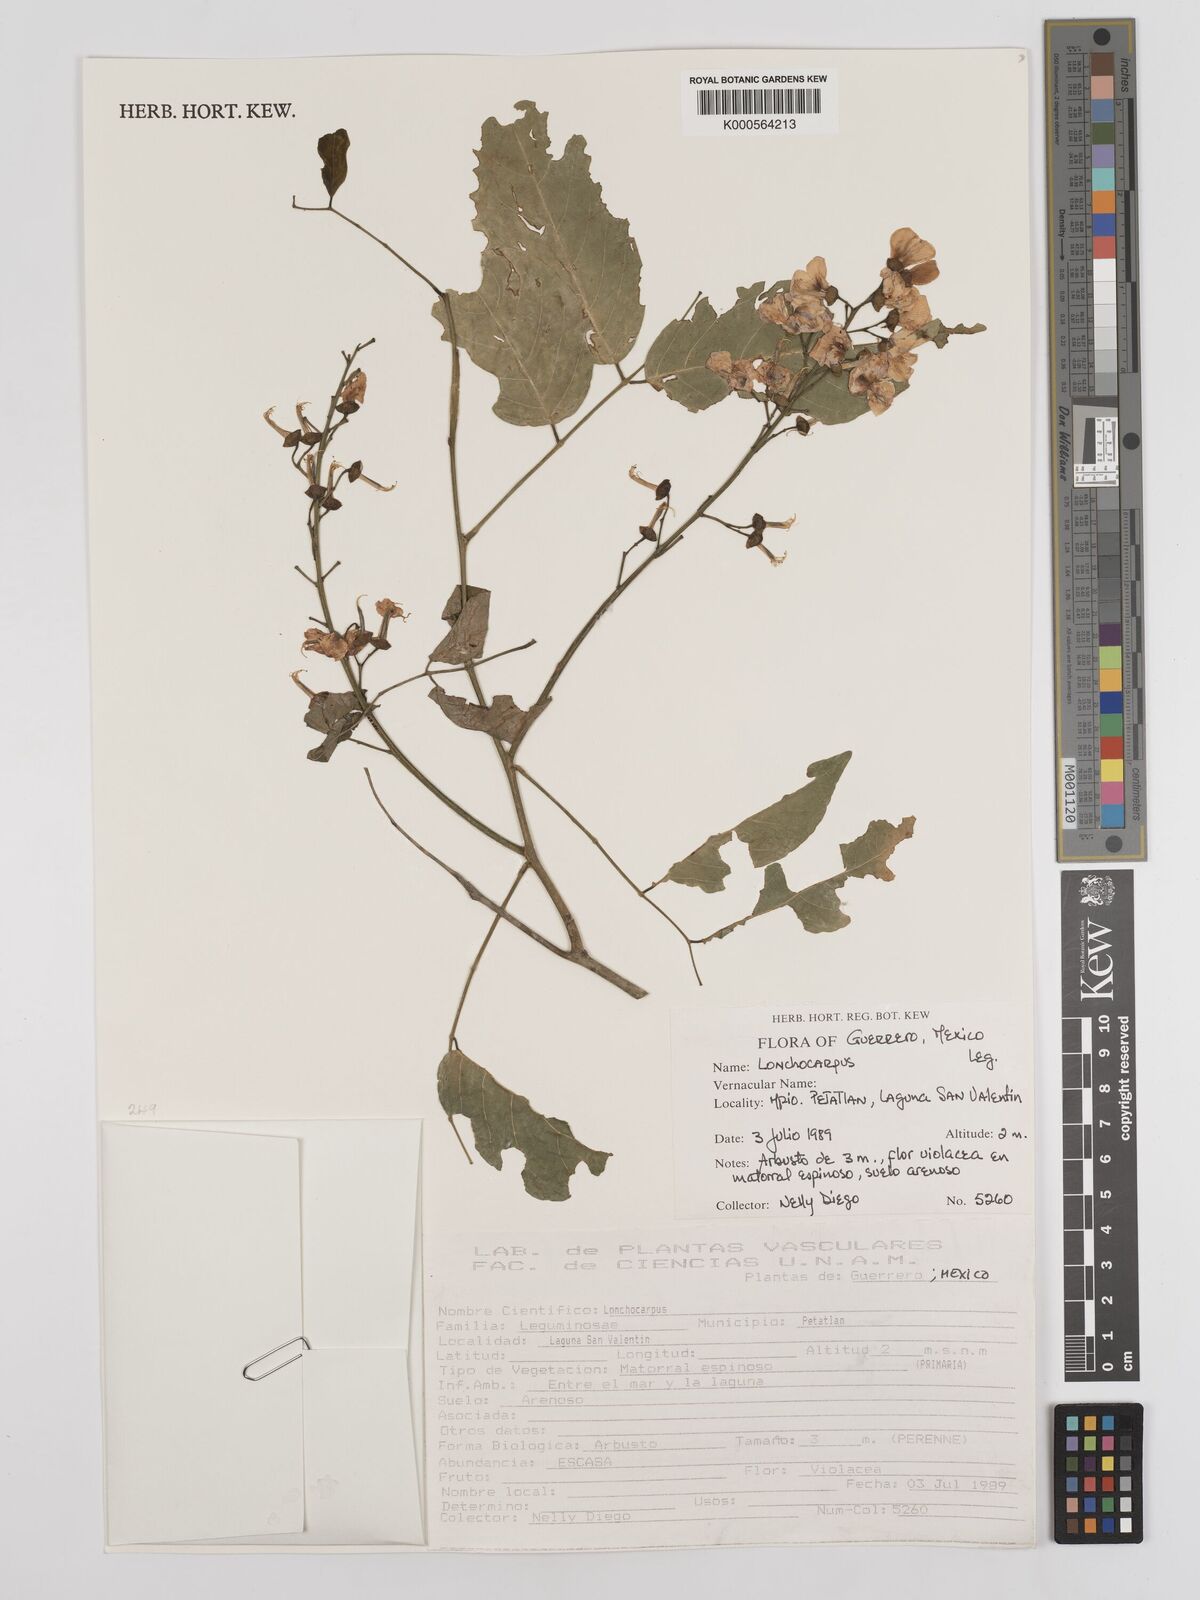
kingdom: Plantae
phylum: Tracheophyta
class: Magnoliopsida
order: Fabales
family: Fabaceae
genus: Lonchocarpus
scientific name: Lonchocarpus
